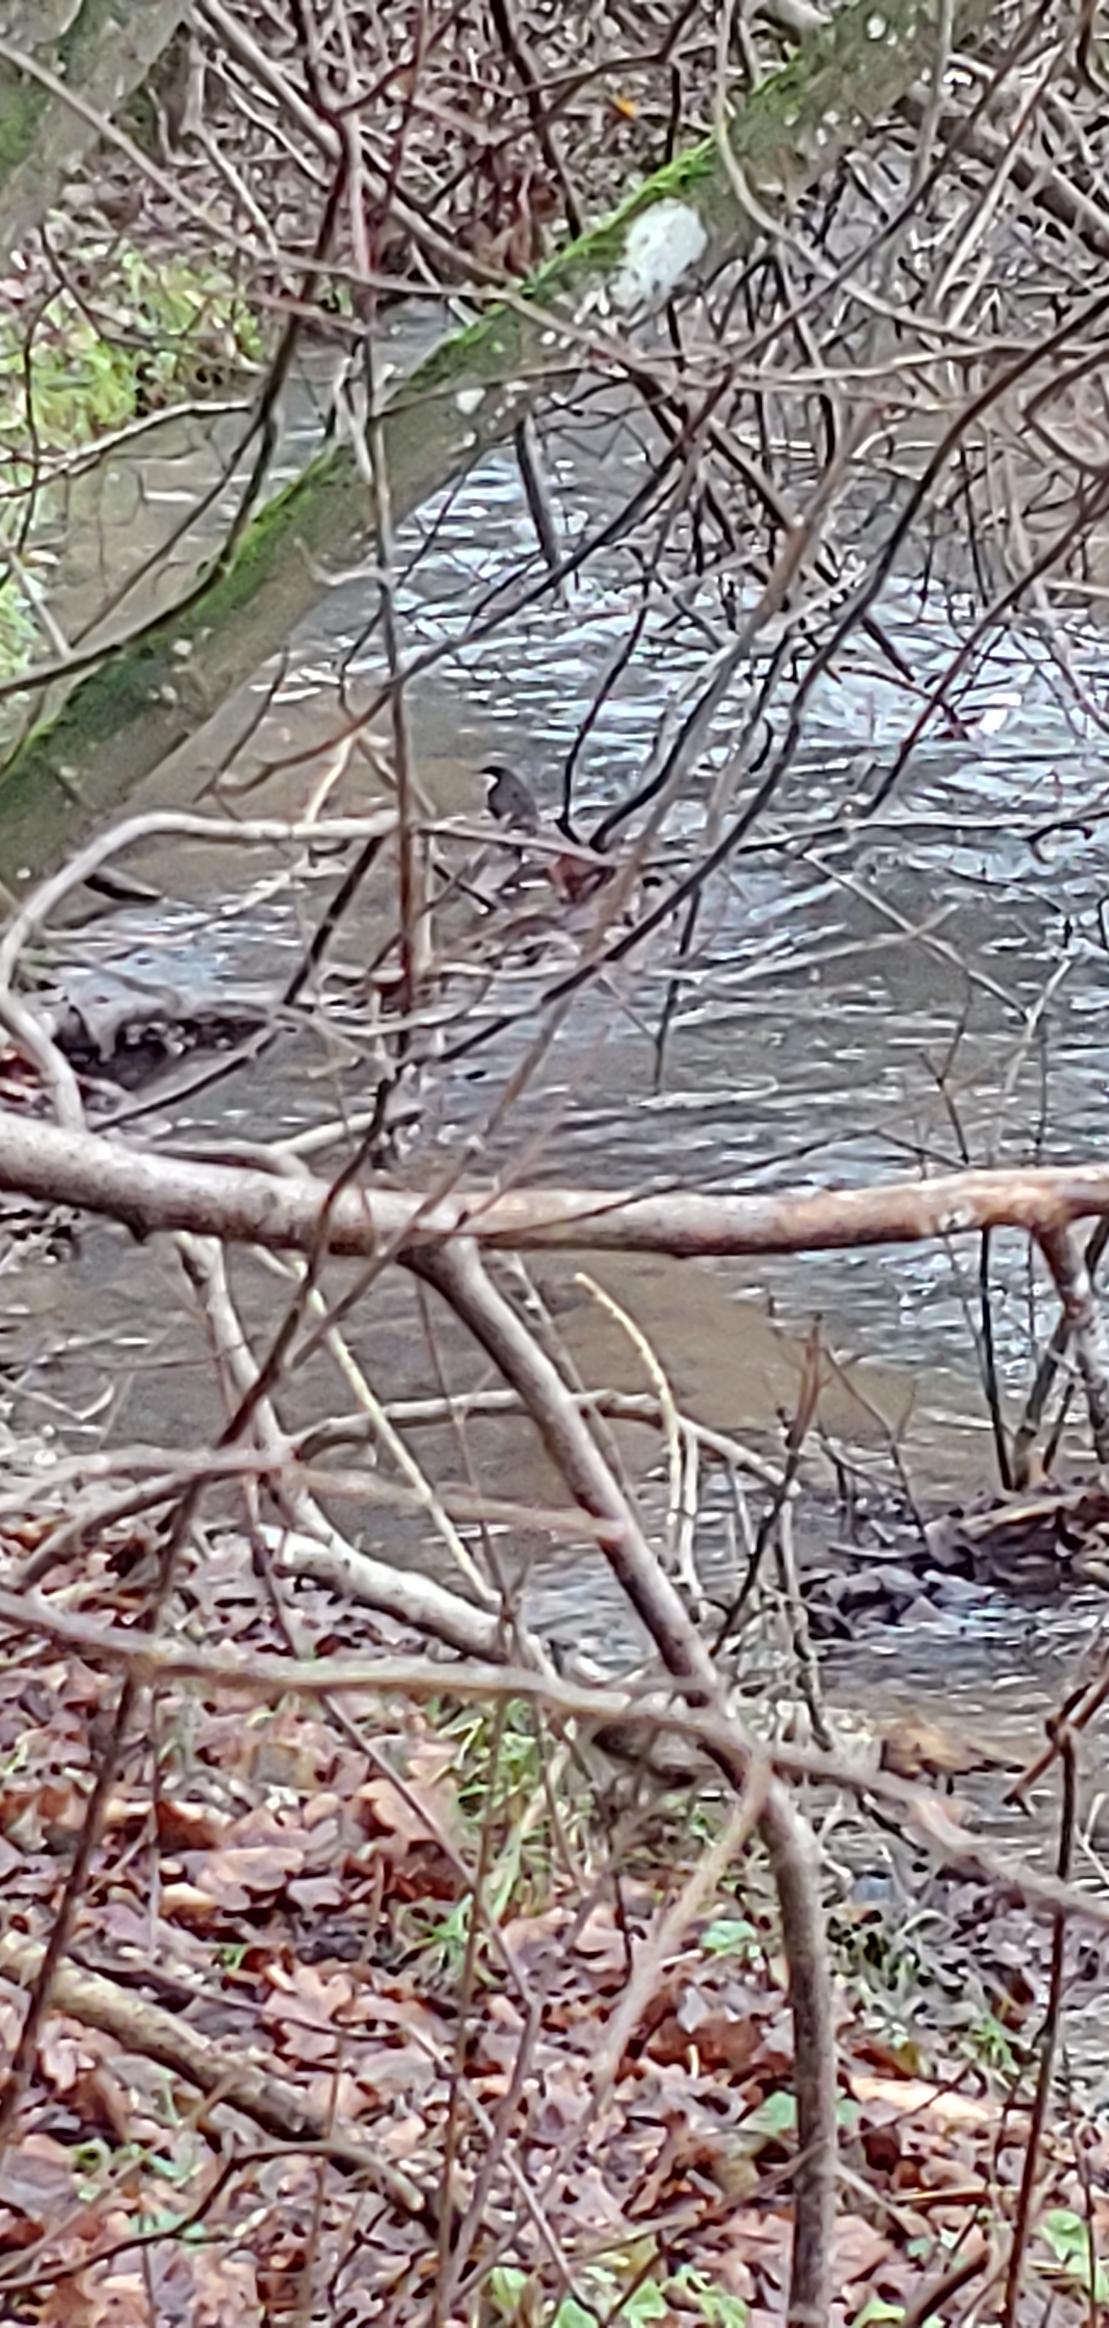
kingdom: Animalia
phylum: Chordata
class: Aves
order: Passeriformes
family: Cinclidae
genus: Cinclus
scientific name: Cinclus cinclus
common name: Vandstær
